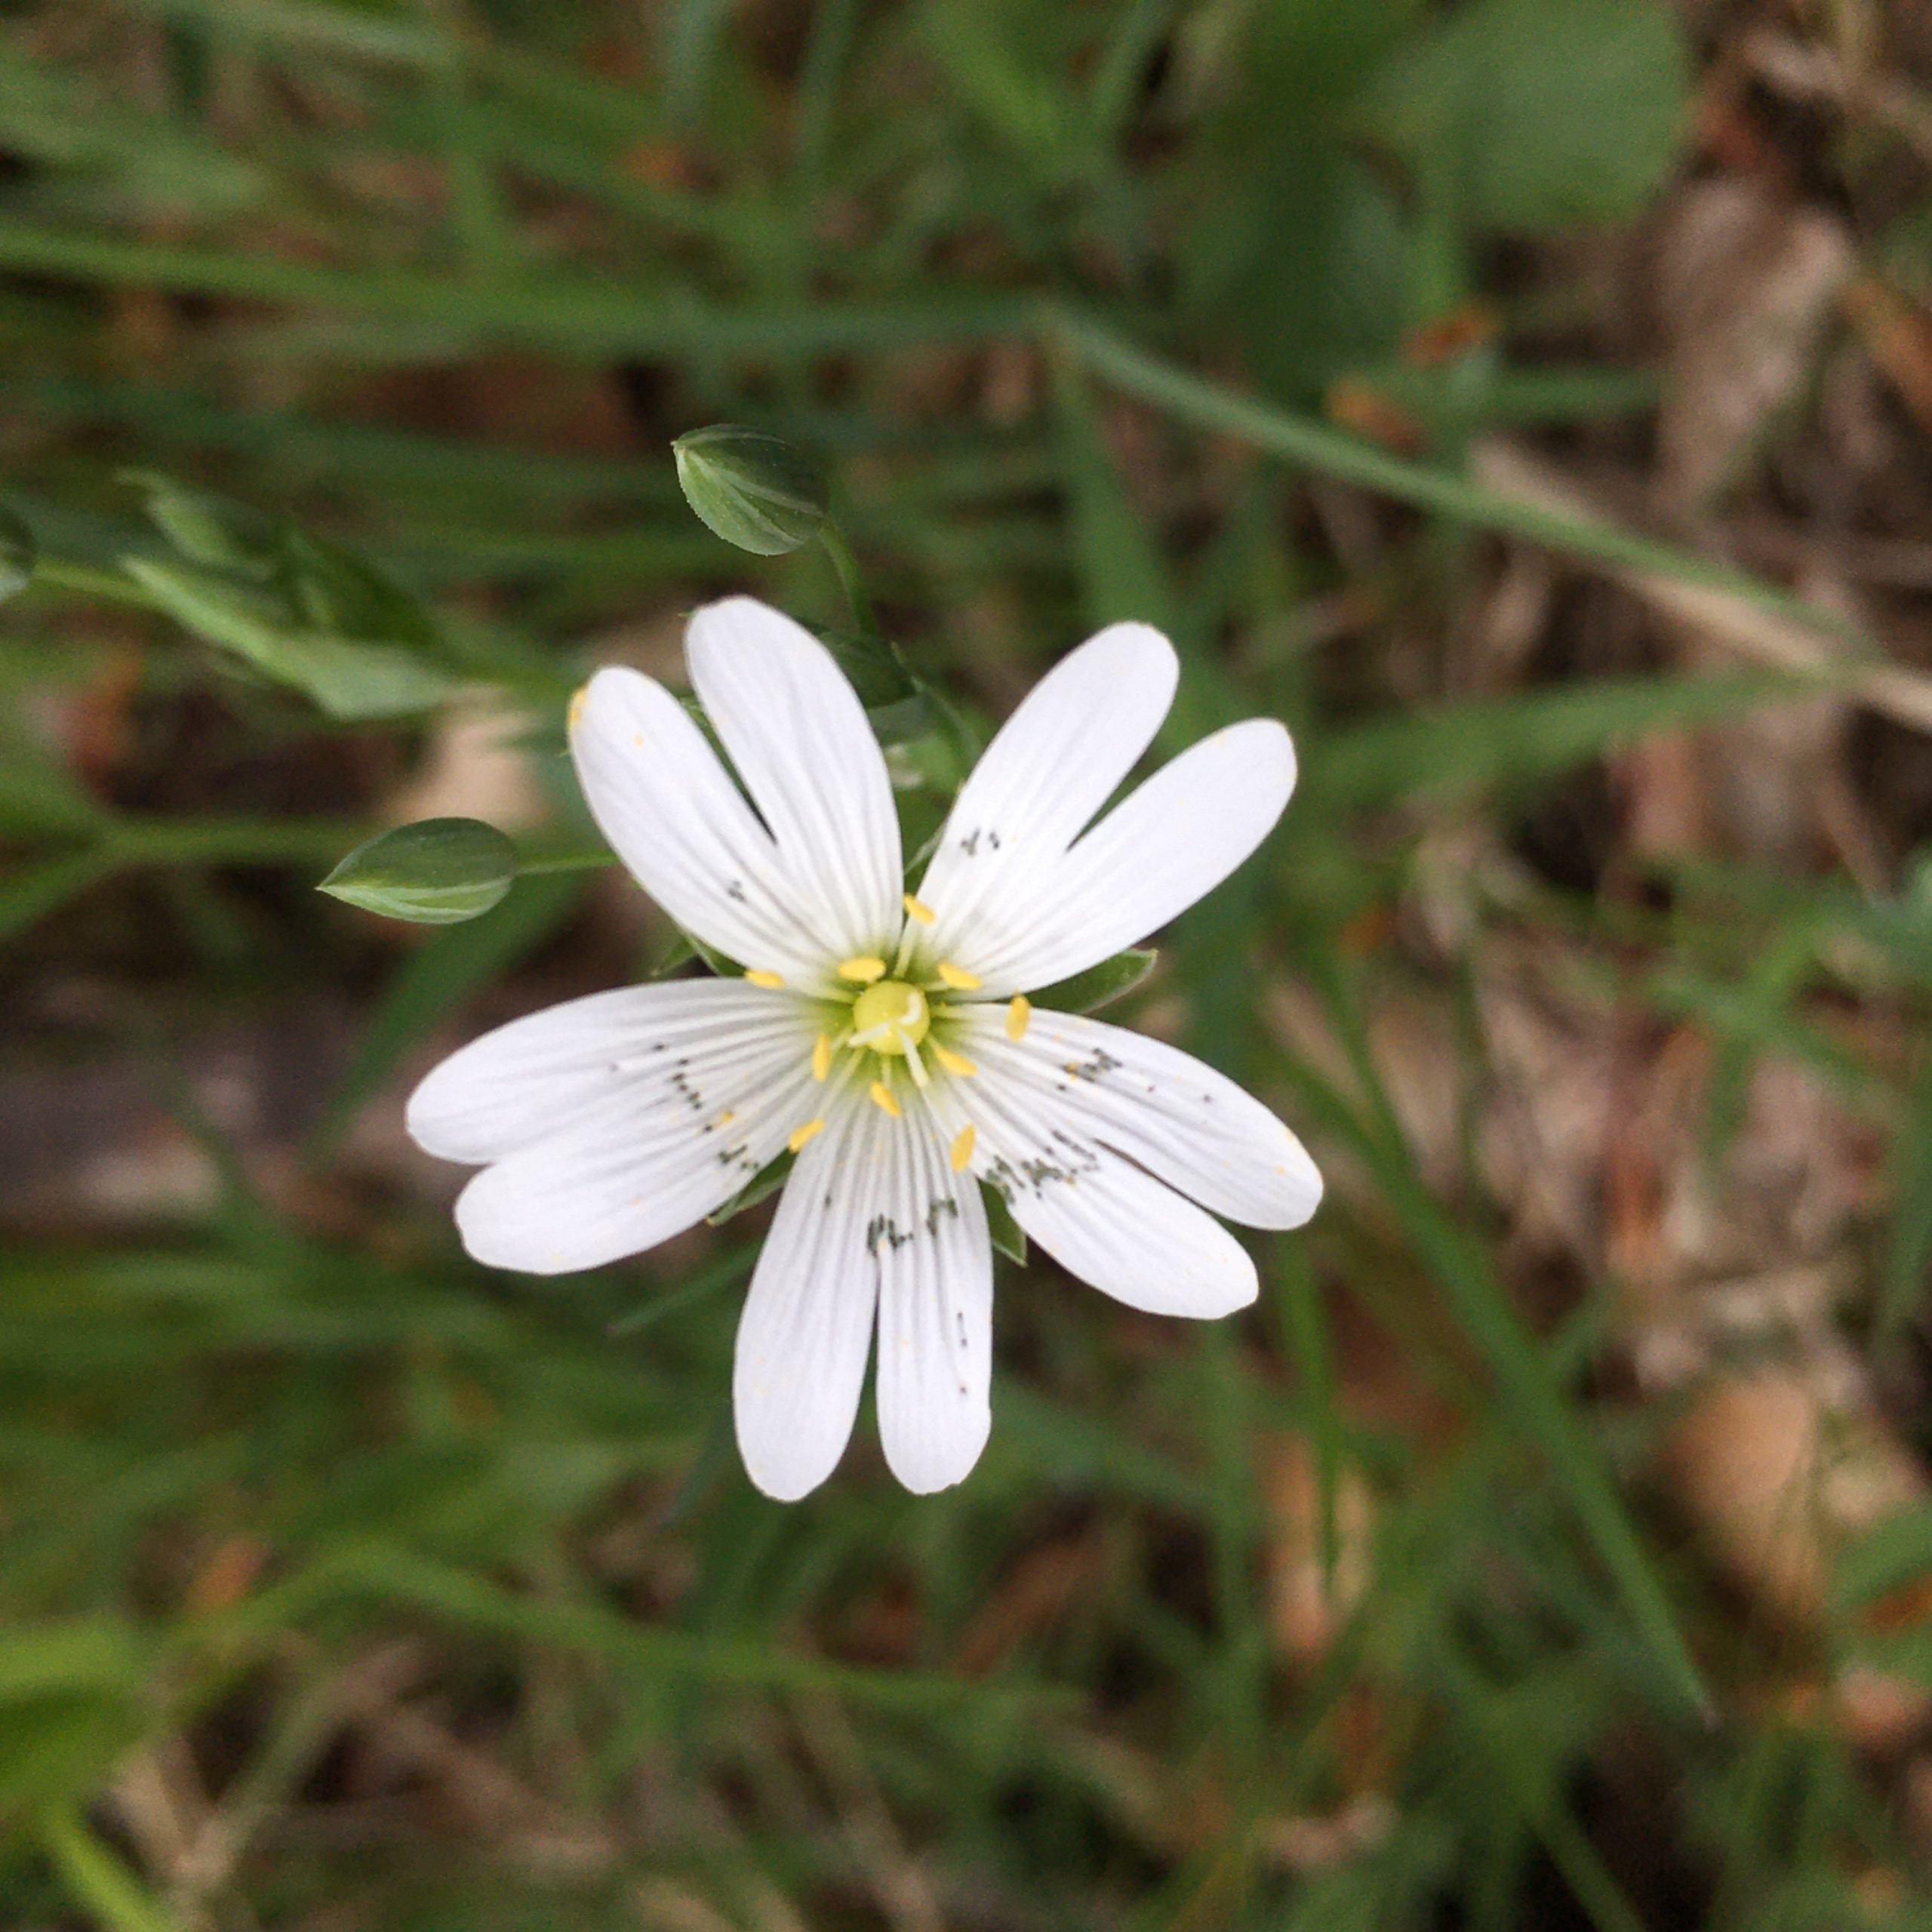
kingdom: Plantae
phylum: Tracheophyta
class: Magnoliopsida
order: Caryophyllales
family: Caryophyllaceae
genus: Rabelera
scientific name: Rabelera holostea
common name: Stor fladstjerne
